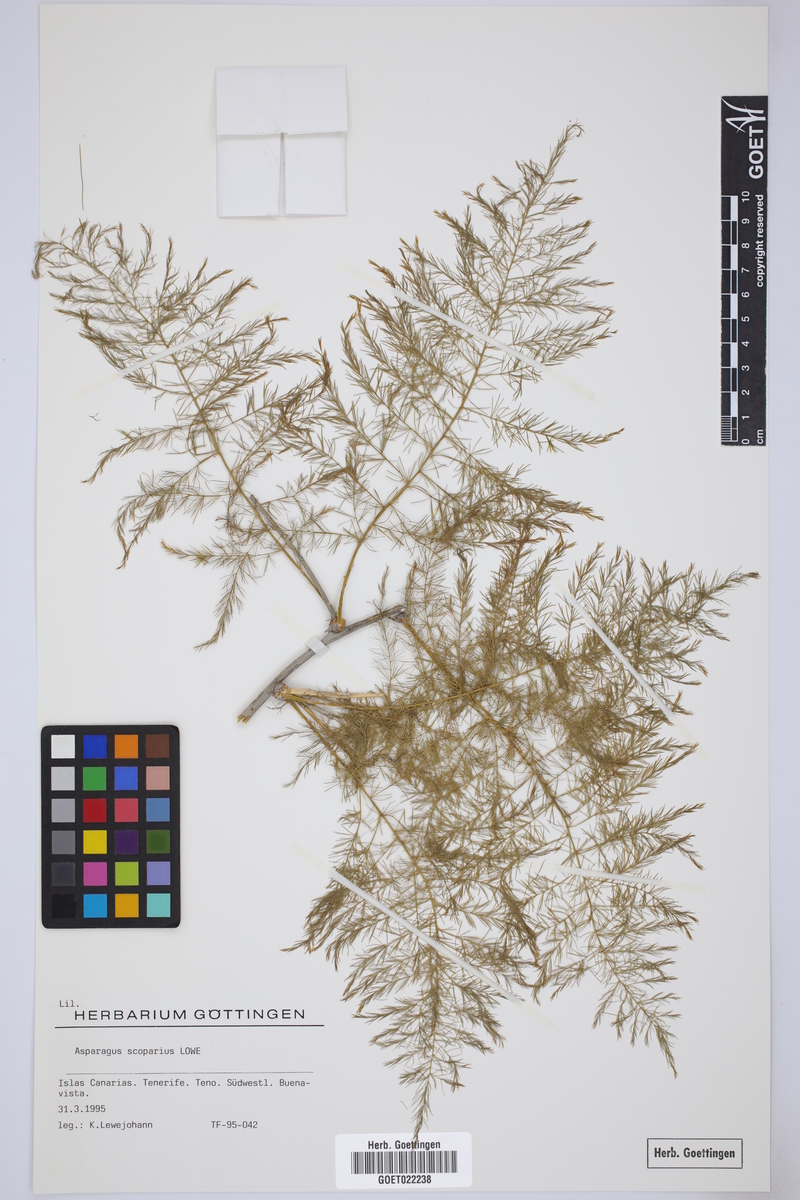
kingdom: Plantae
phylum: Tracheophyta
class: Liliopsida
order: Asparagales
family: Asparagaceae
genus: Asparagus
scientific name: Asparagus scoparius
